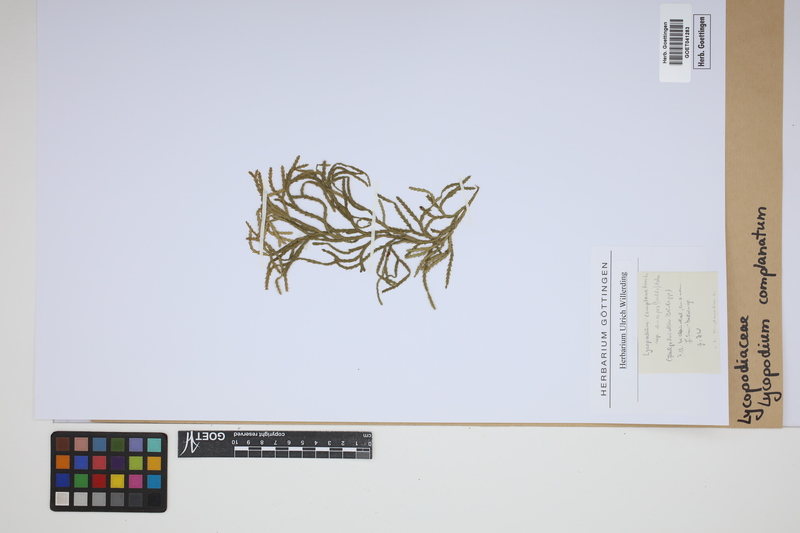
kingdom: Plantae
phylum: Tracheophyta
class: Lycopodiopsida
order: Lycopodiales
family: Lycopodiaceae
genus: Diphasiastrum
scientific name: Diphasiastrum complanatum
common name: Northern running-pine
